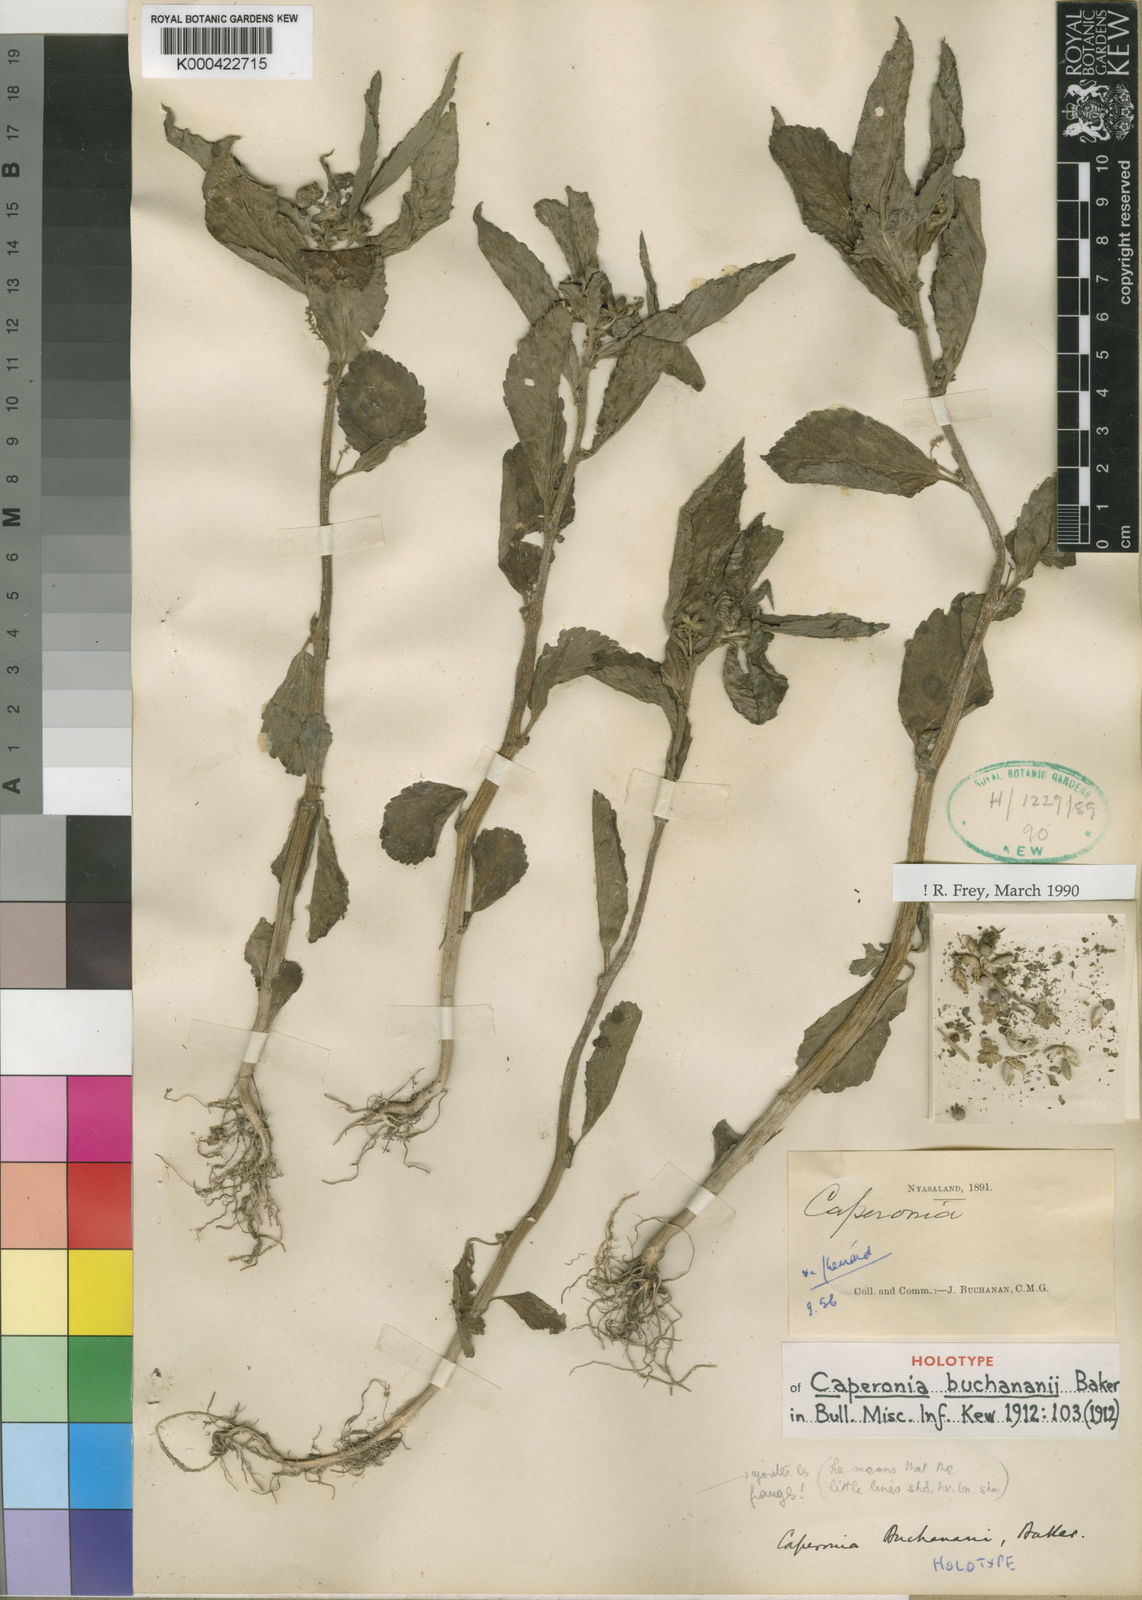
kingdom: Plantae
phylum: Tracheophyta
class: Magnoliopsida
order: Malpighiales
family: Euphorbiaceae
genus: Caperonia
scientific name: Caperonia fistulosa
